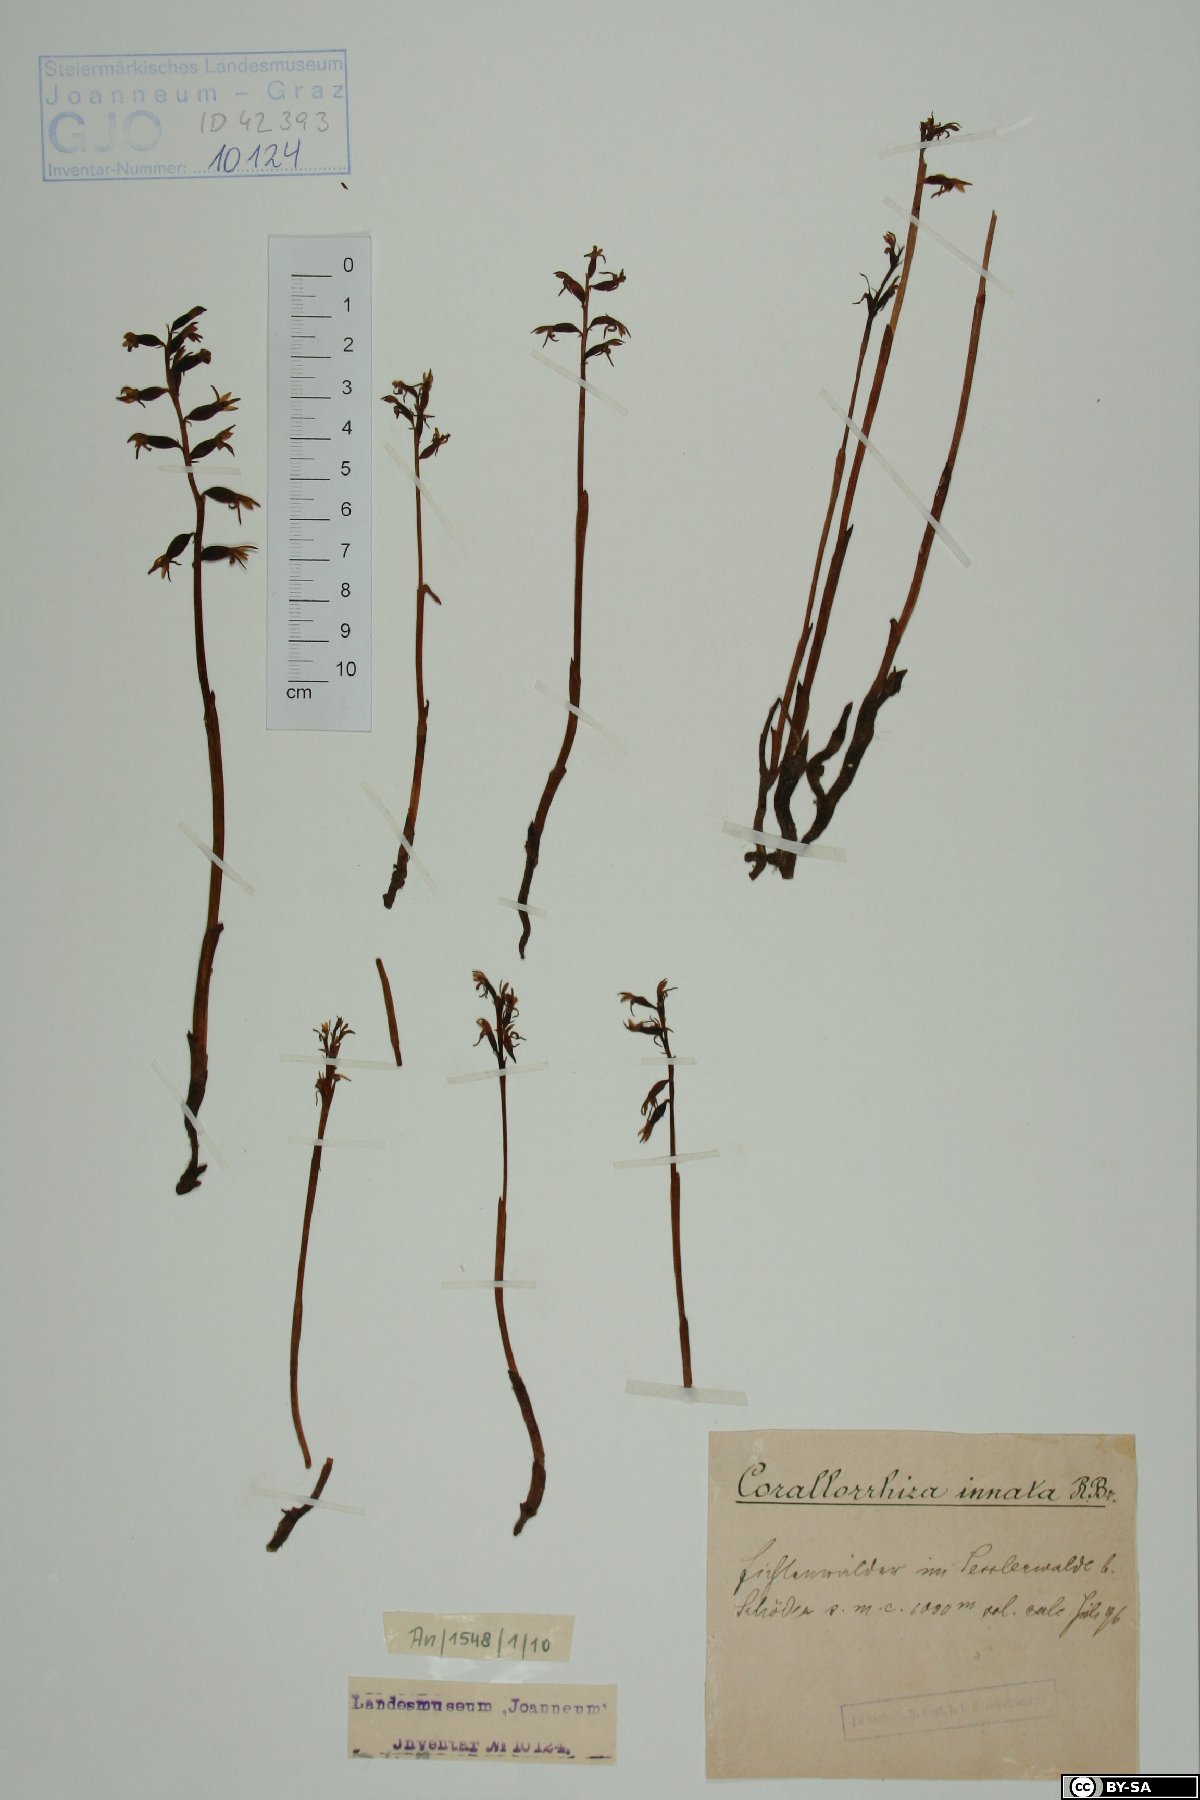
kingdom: Plantae
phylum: Tracheophyta
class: Liliopsida
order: Asparagales
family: Orchidaceae
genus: Corallorhiza
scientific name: Corallorhiza trifida
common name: Yellow coralroot
